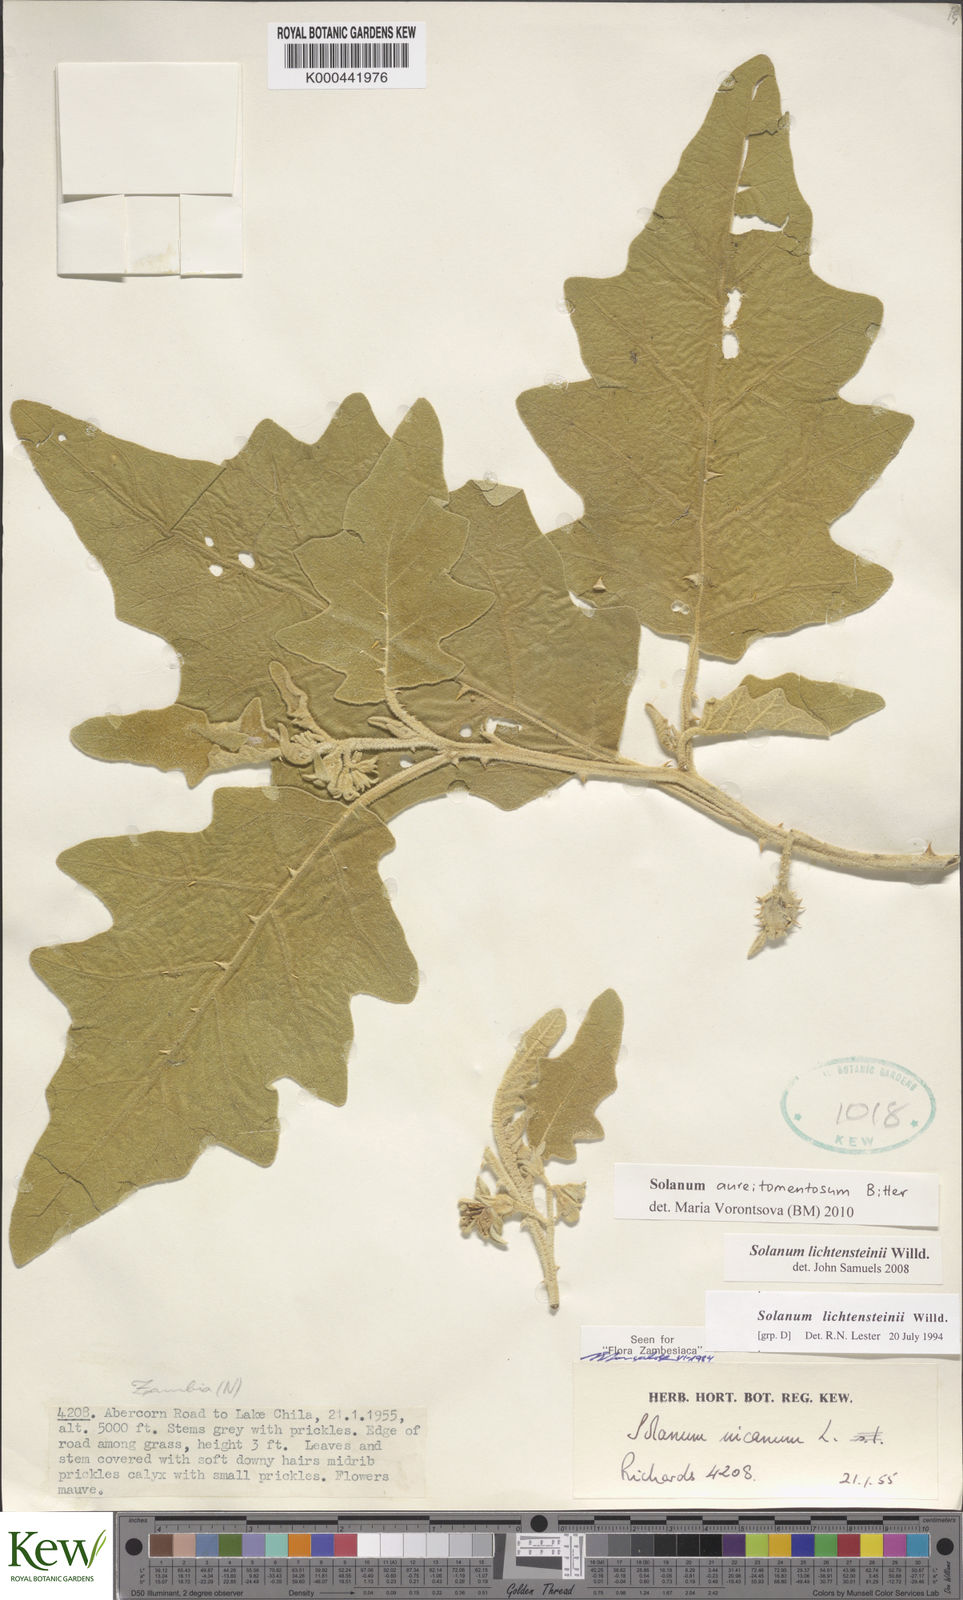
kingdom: Plantae
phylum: Tracheophyta
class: Magnoliopsida
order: Solanales
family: Solanaceae
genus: Solanum
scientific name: Solanum aureitomentosum
